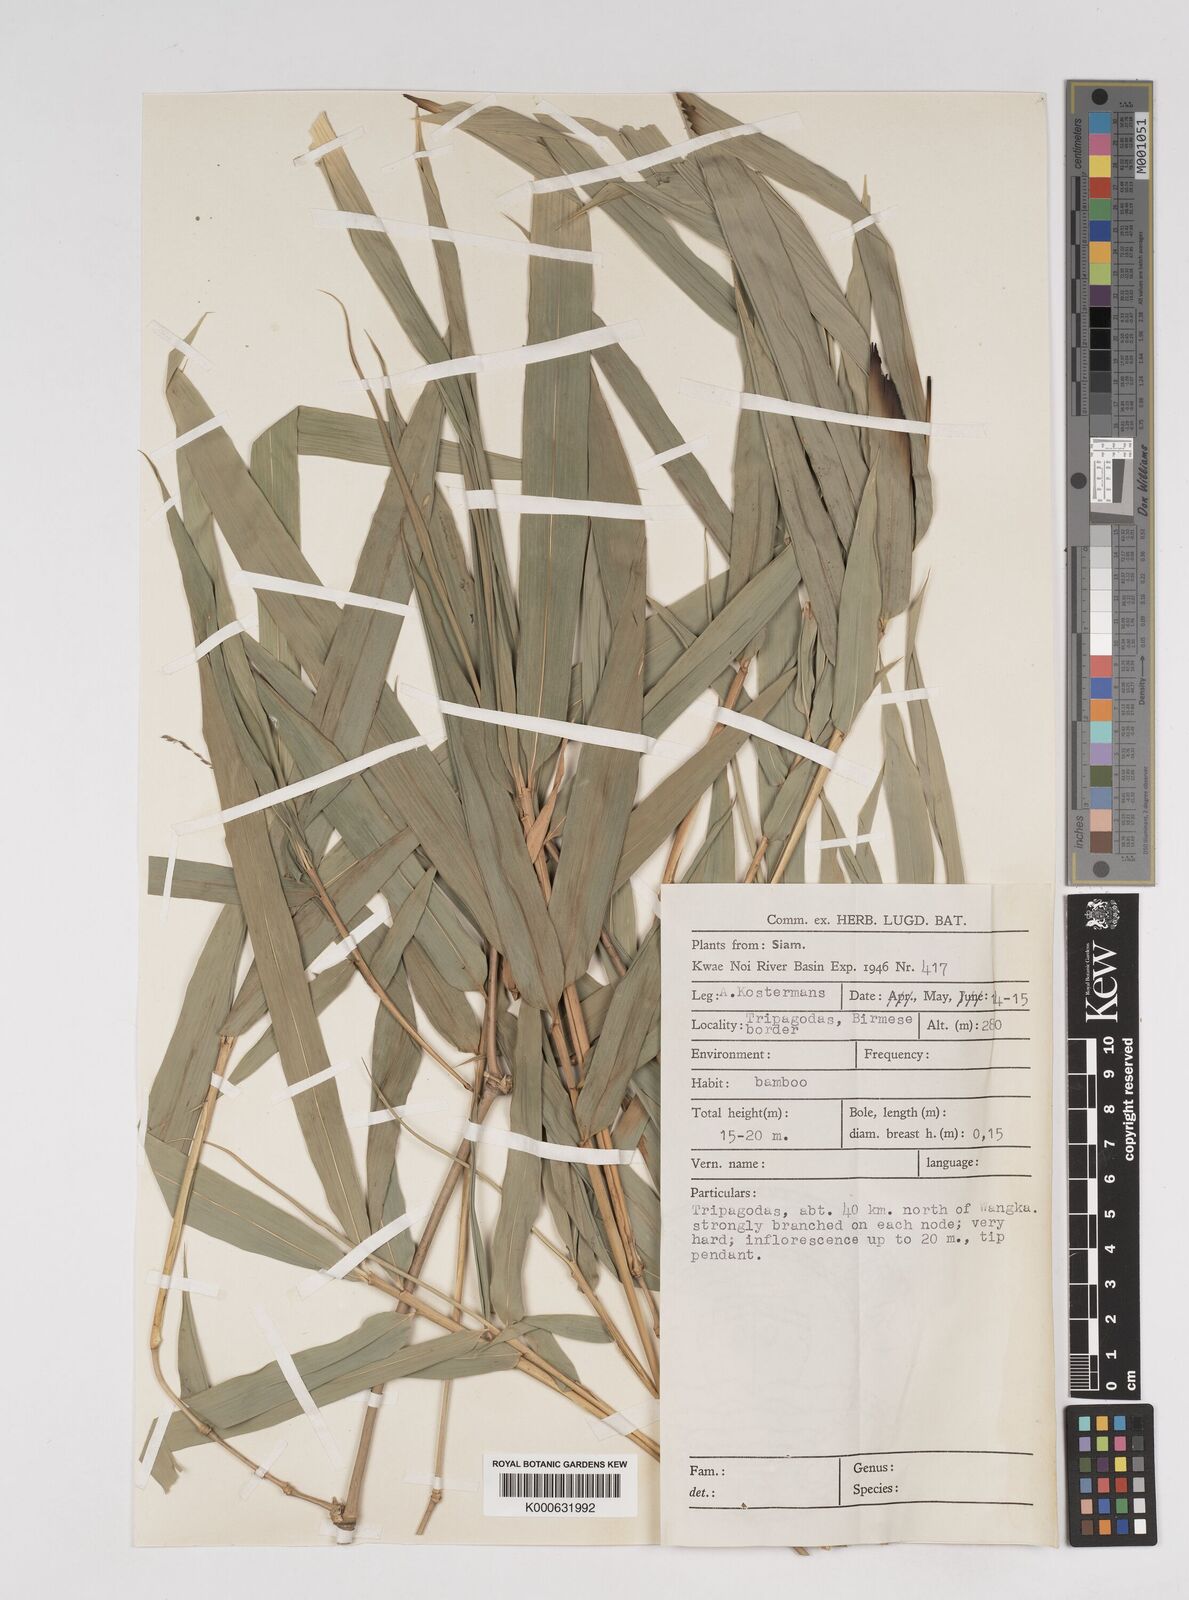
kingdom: Plantae
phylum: Tracheophyta
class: Liliopsida
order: Poales
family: Poaceae
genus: Dendrocalamus
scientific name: Dendrocalamus strictus
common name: Male bamboo
